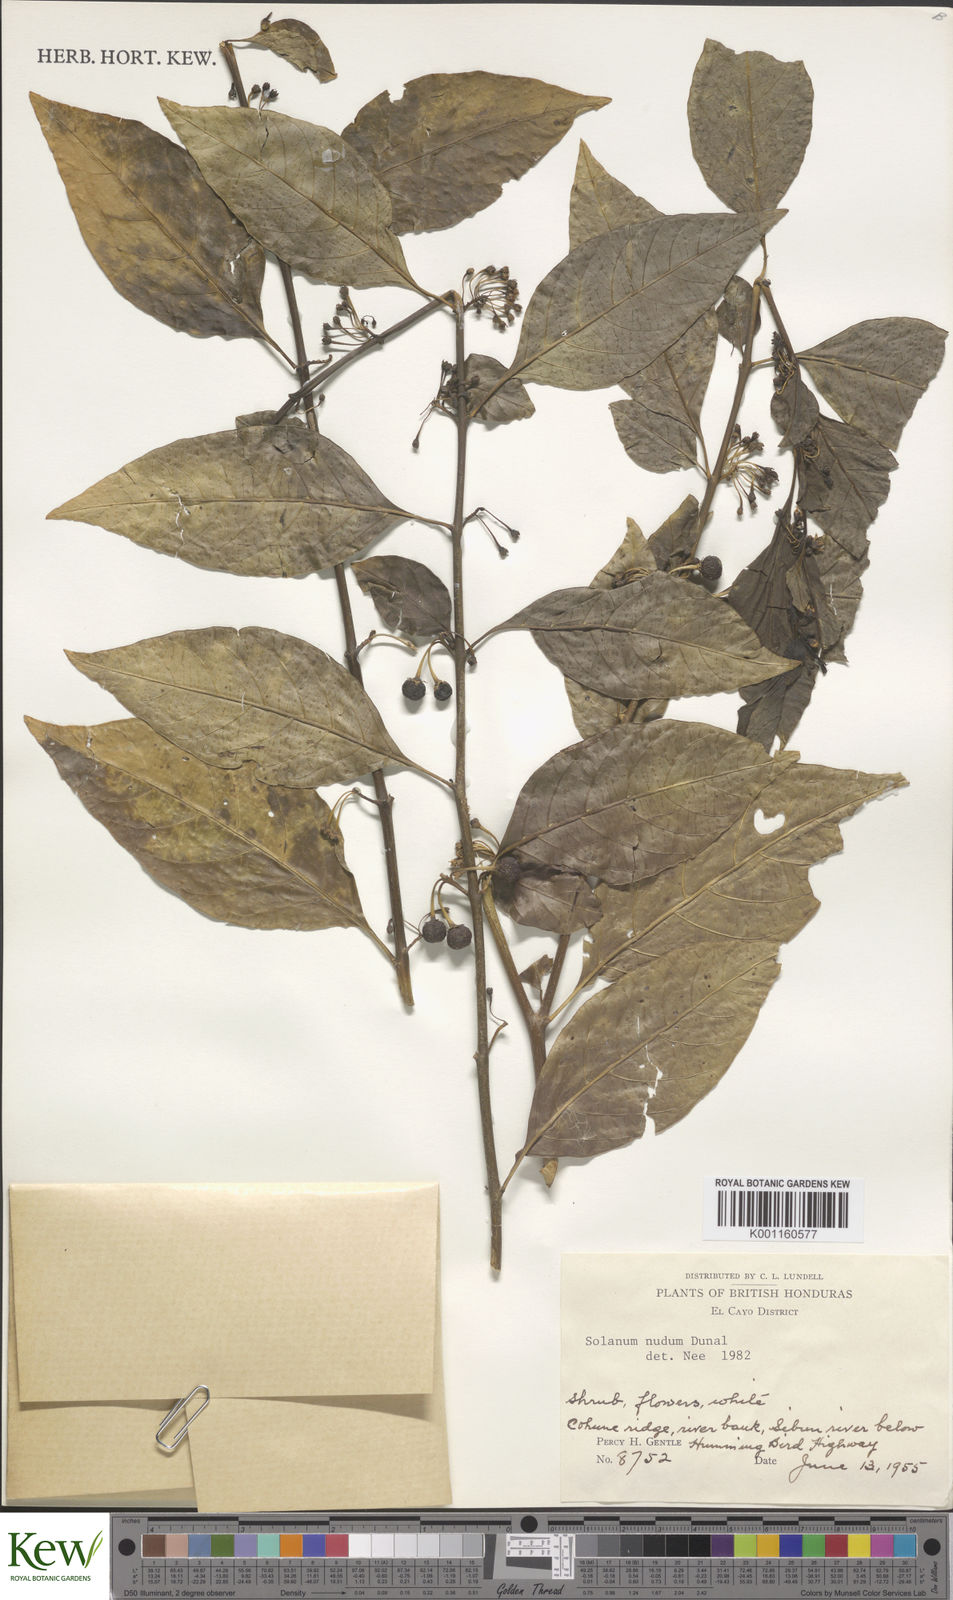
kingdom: Plantae
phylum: Tracheophyta
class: Magnoliopsida
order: Solanales
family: Solanaceae
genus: Solanum
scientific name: Solanum nudum
